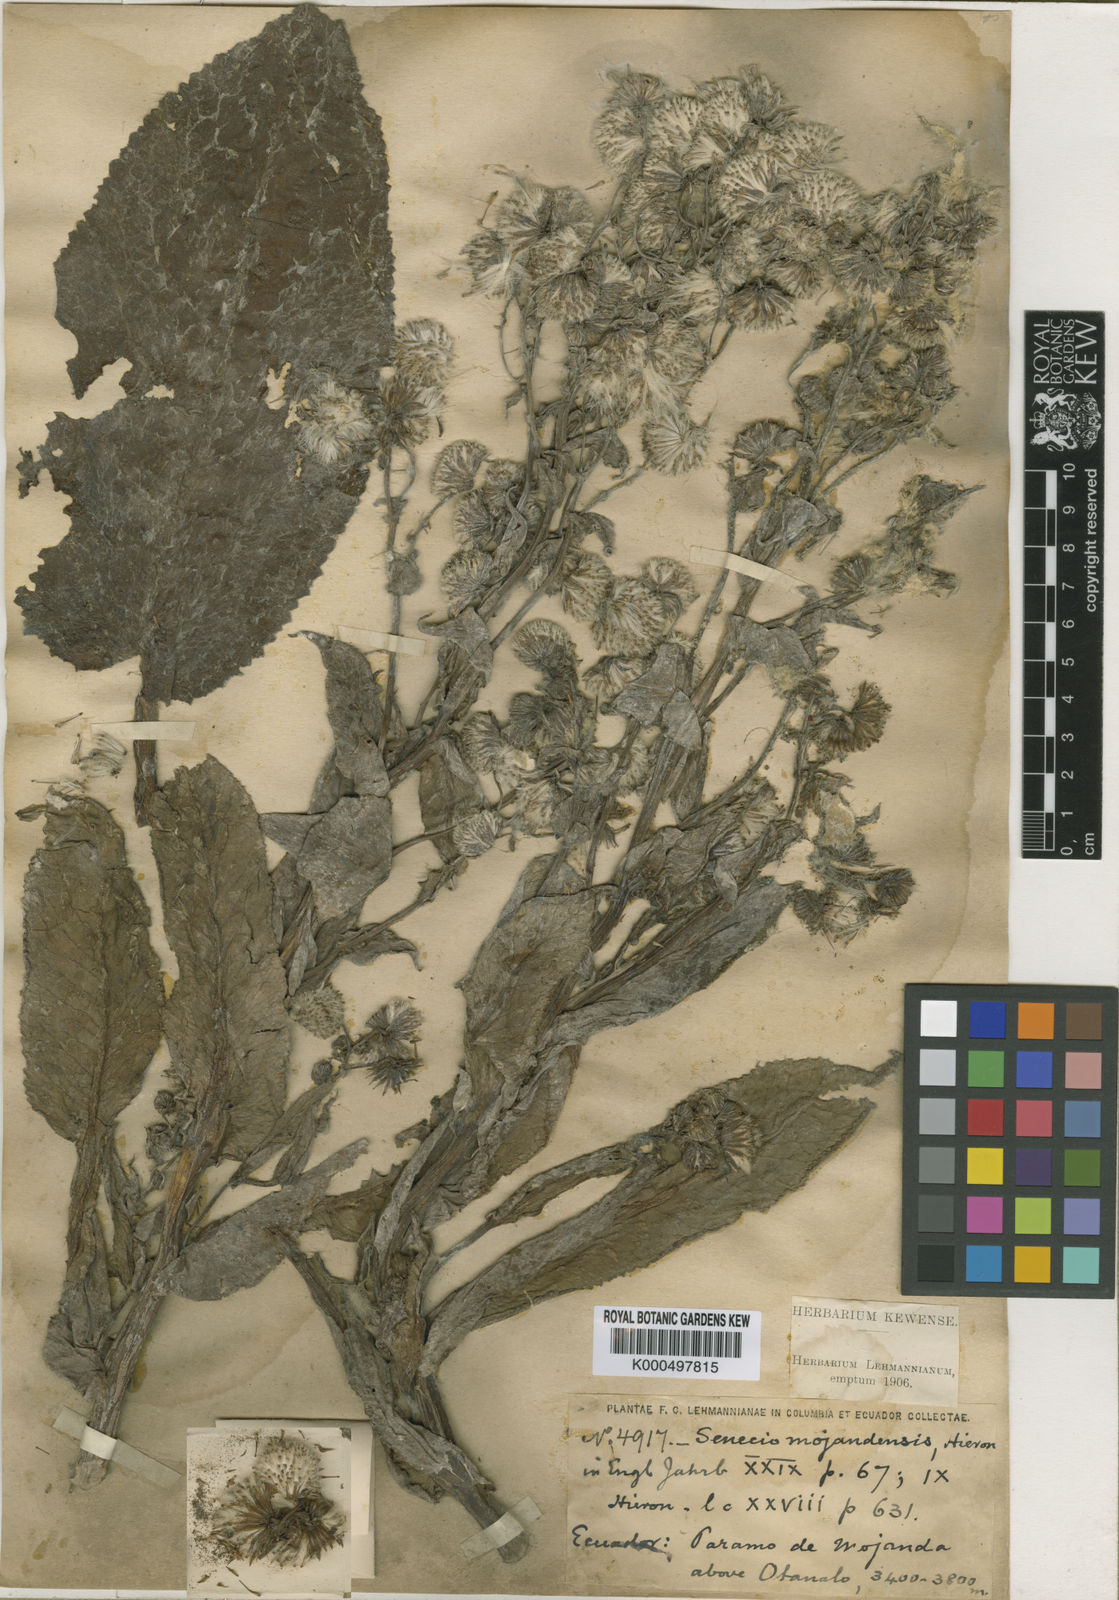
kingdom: Plantae
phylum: Tracheophyta
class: Magnoliopsida
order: Asterales
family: Asteraceae
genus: Senecio
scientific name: Senecio
